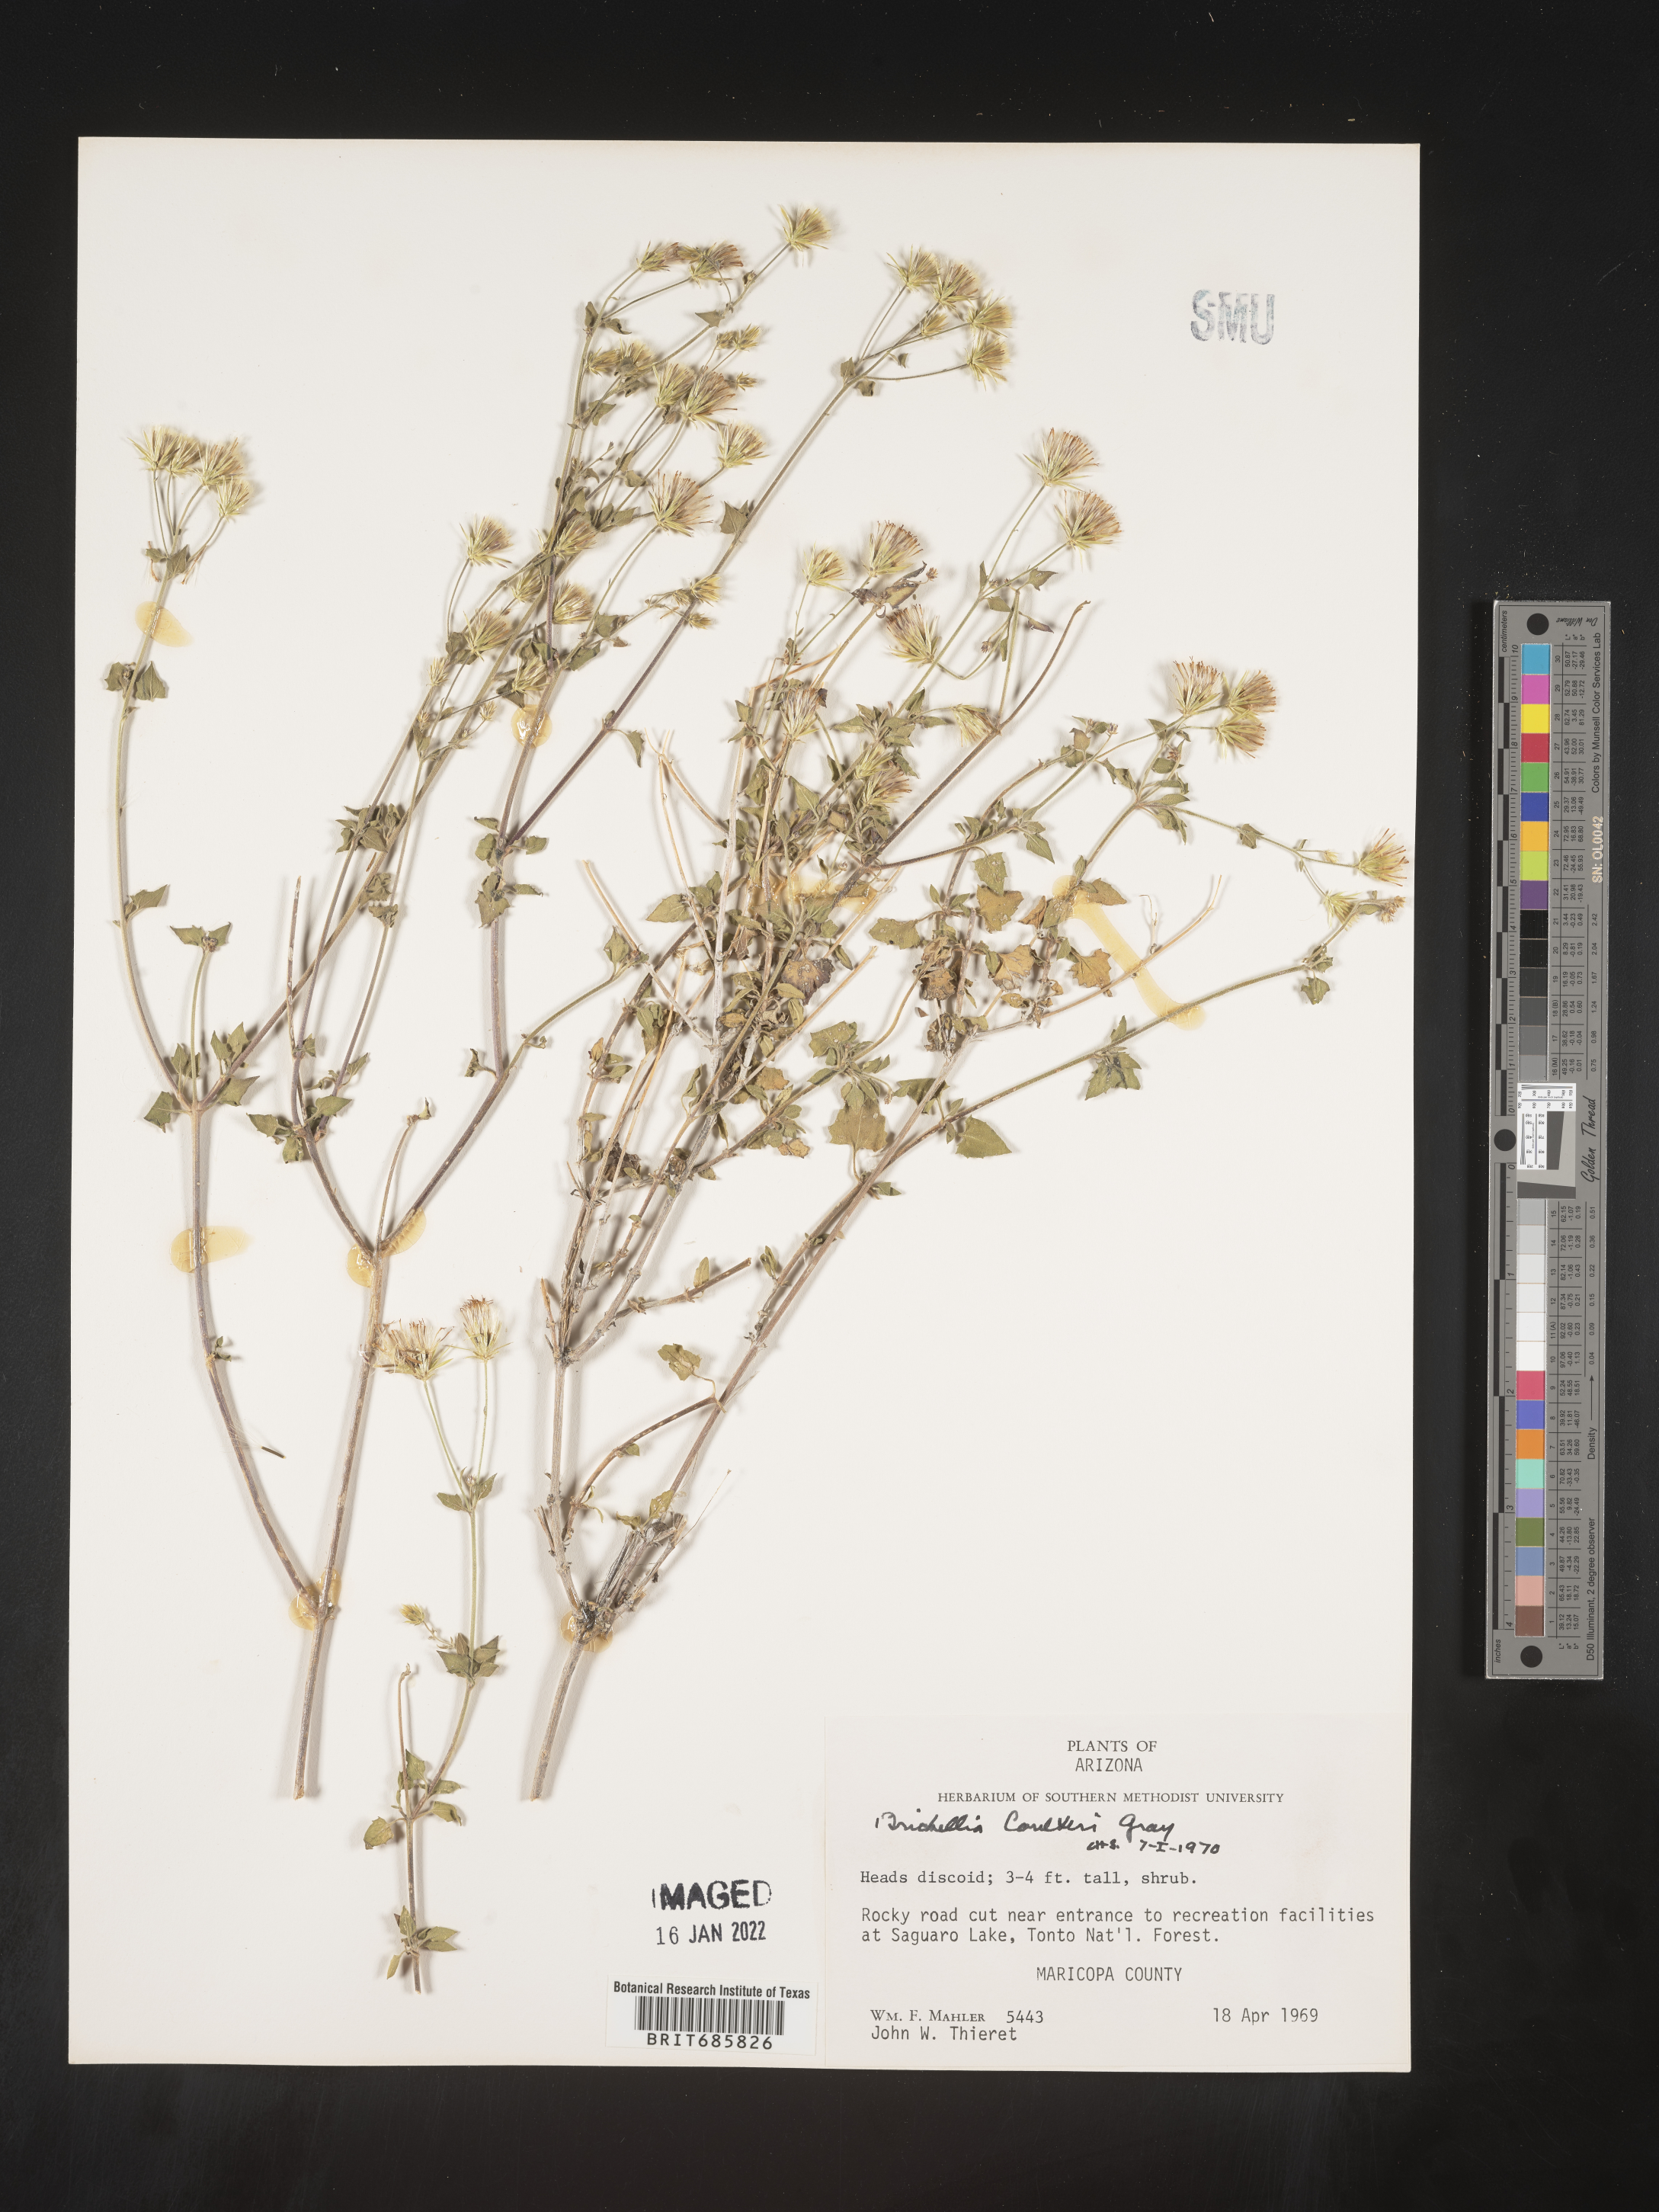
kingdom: Plantae
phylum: Tracheophyta
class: Magnoliopsida
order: Asterales
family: Asteraceae
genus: Brickellia
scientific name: Brickellia coulteri
